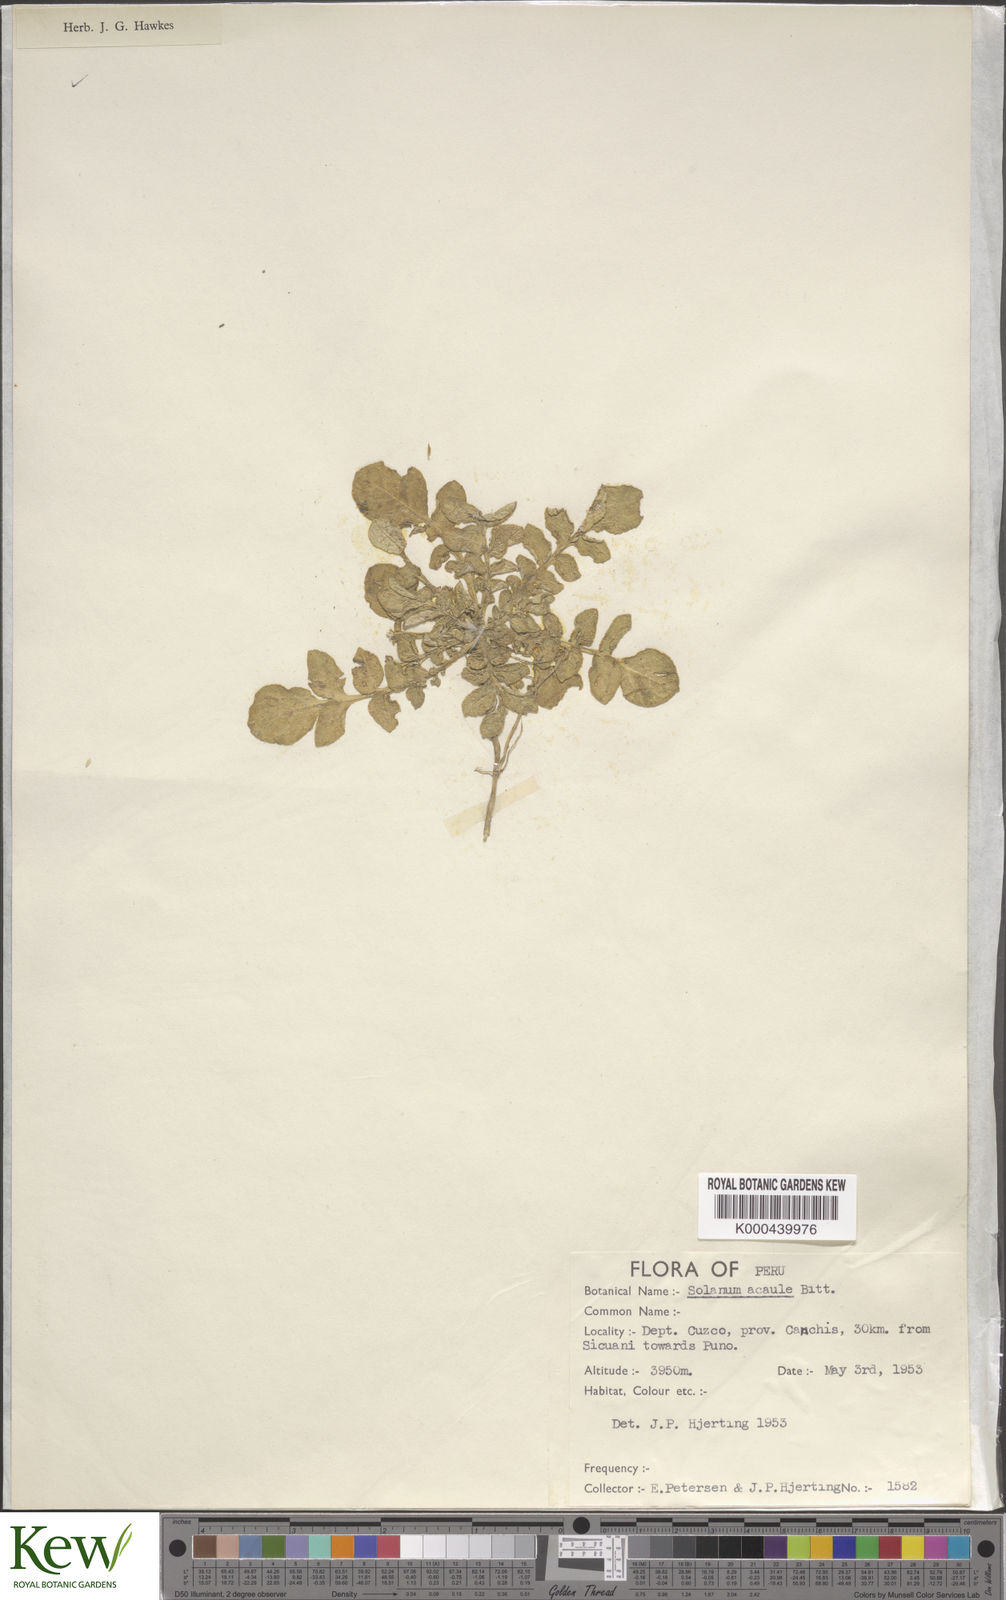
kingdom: Plantae
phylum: Tracheophyta
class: Magnoliopsida
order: Solanales
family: Solanaceae
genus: Solanum
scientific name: Solanum acaule
